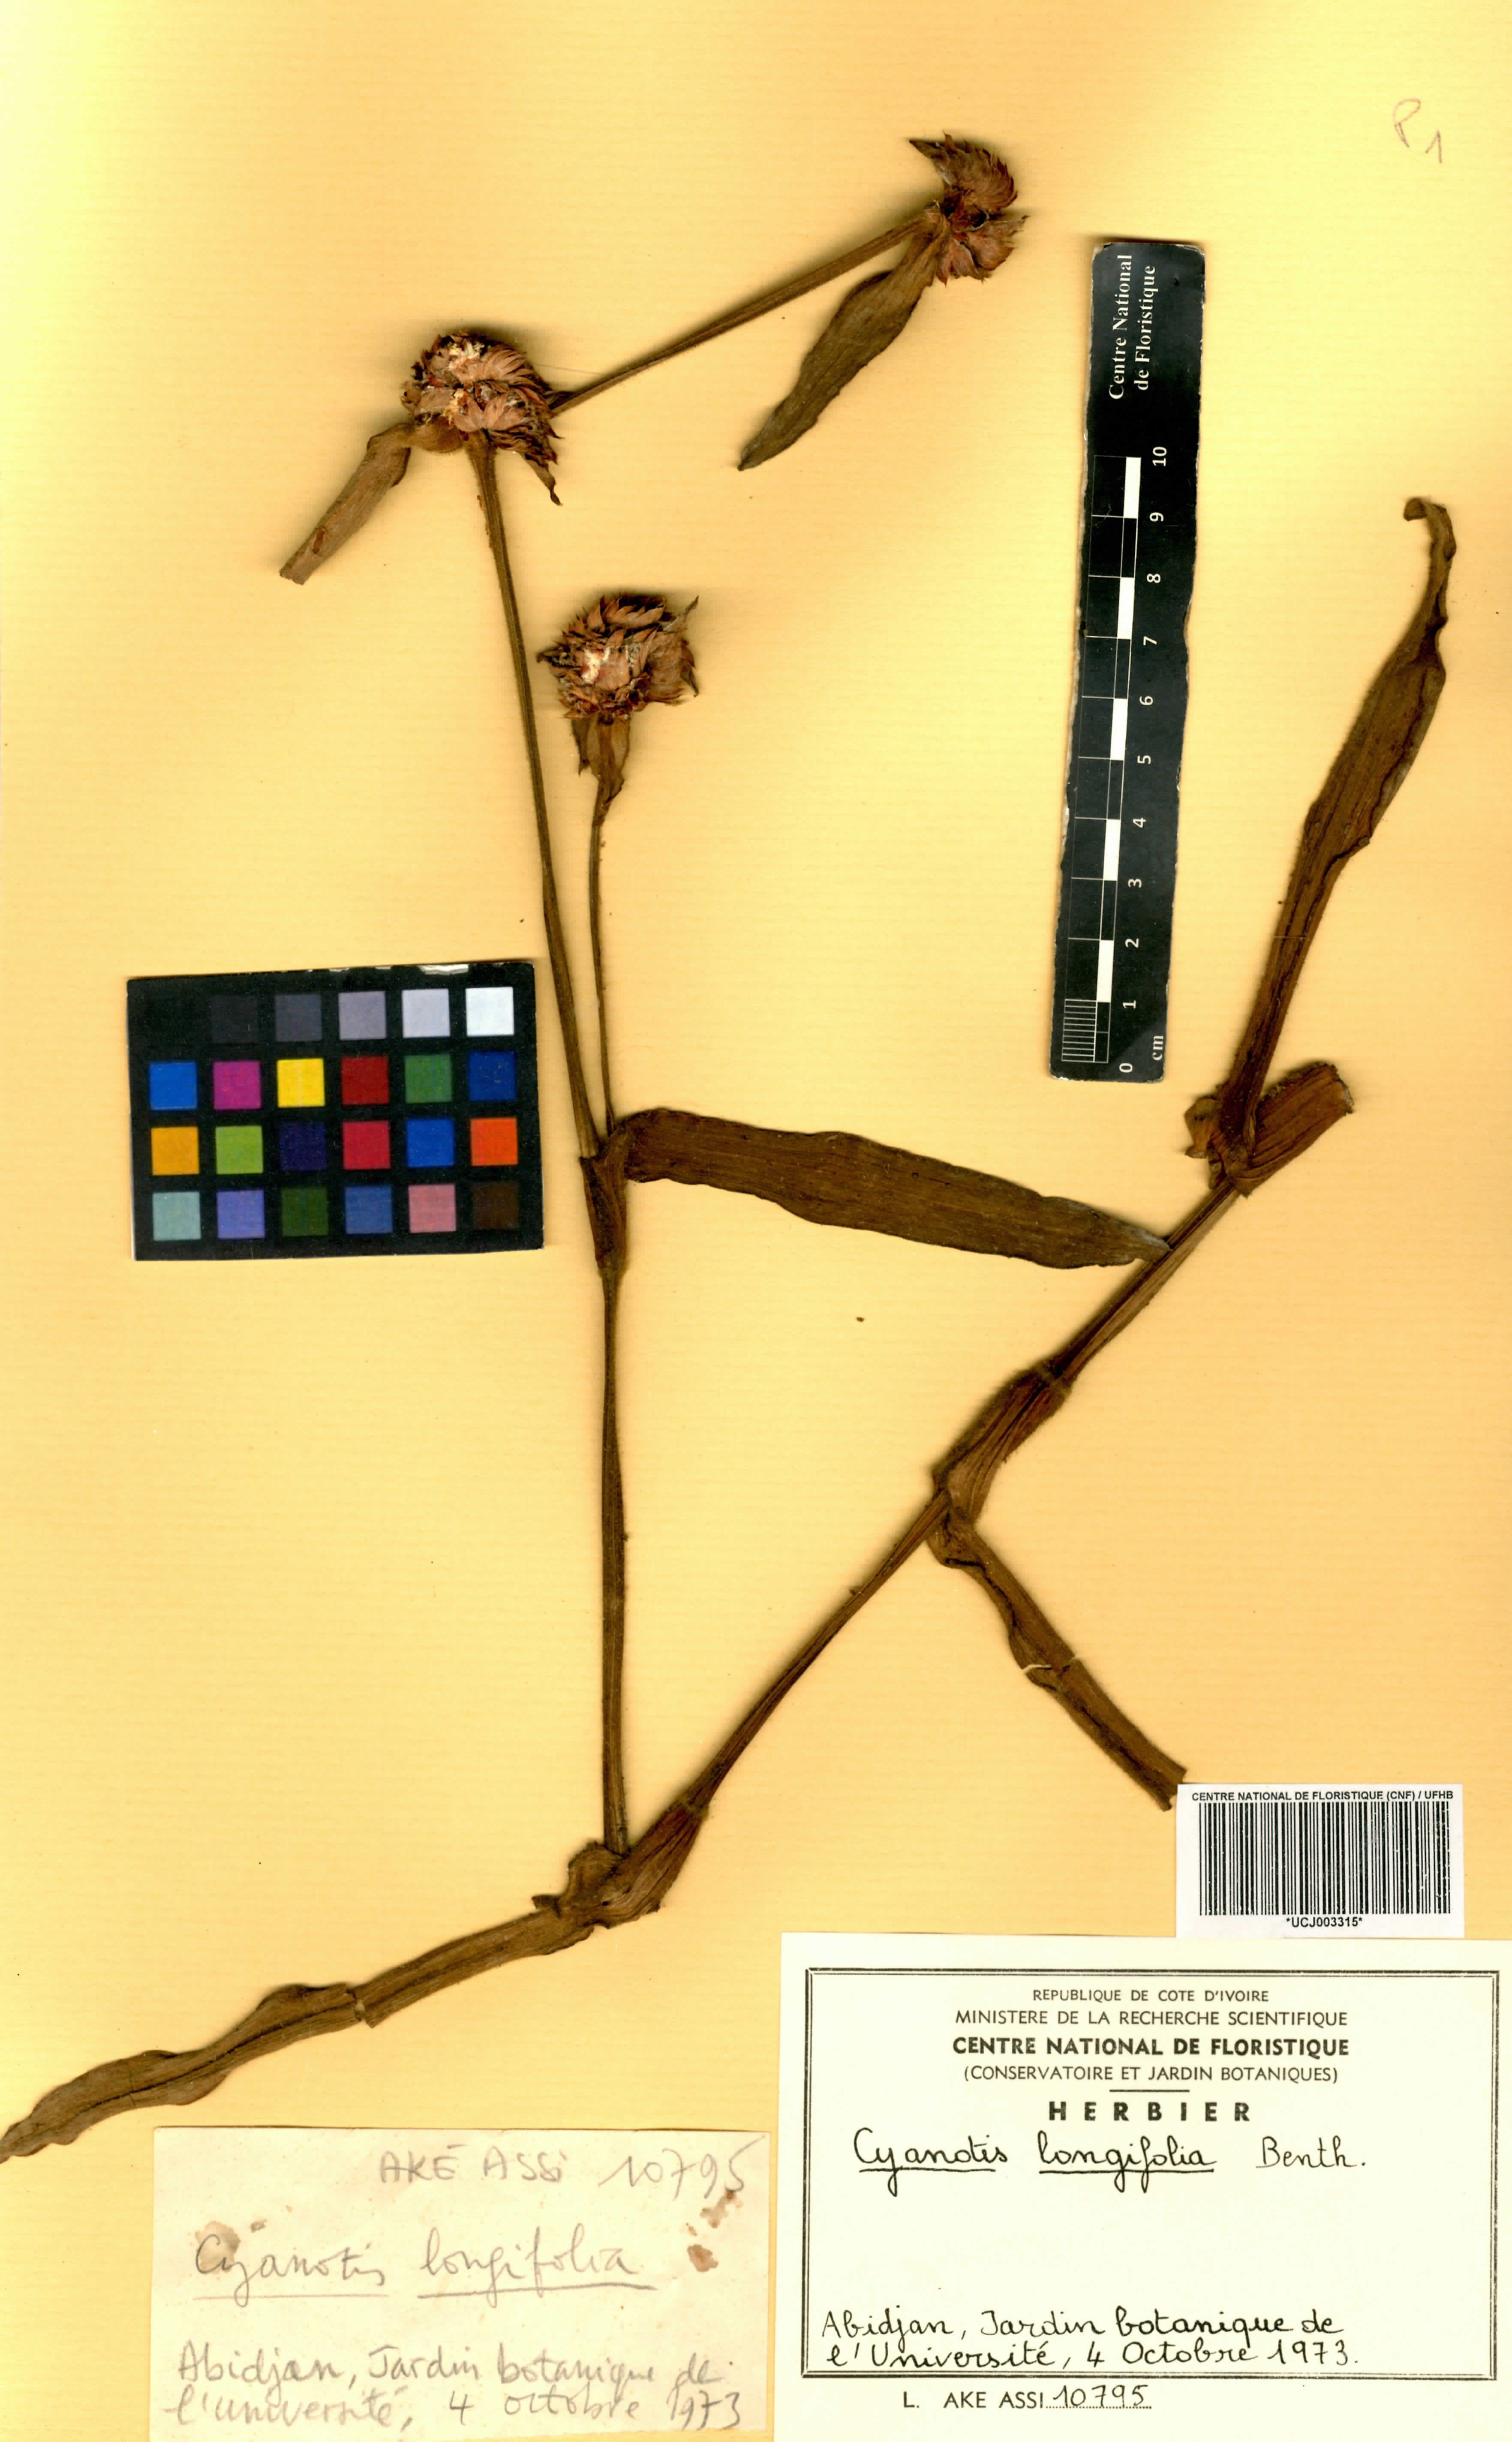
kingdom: Plantae
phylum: Tracheophyta
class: Liliopsida
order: Commelinales
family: Commelinaceae
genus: Cyanotis
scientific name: Cyanotis longifolia
